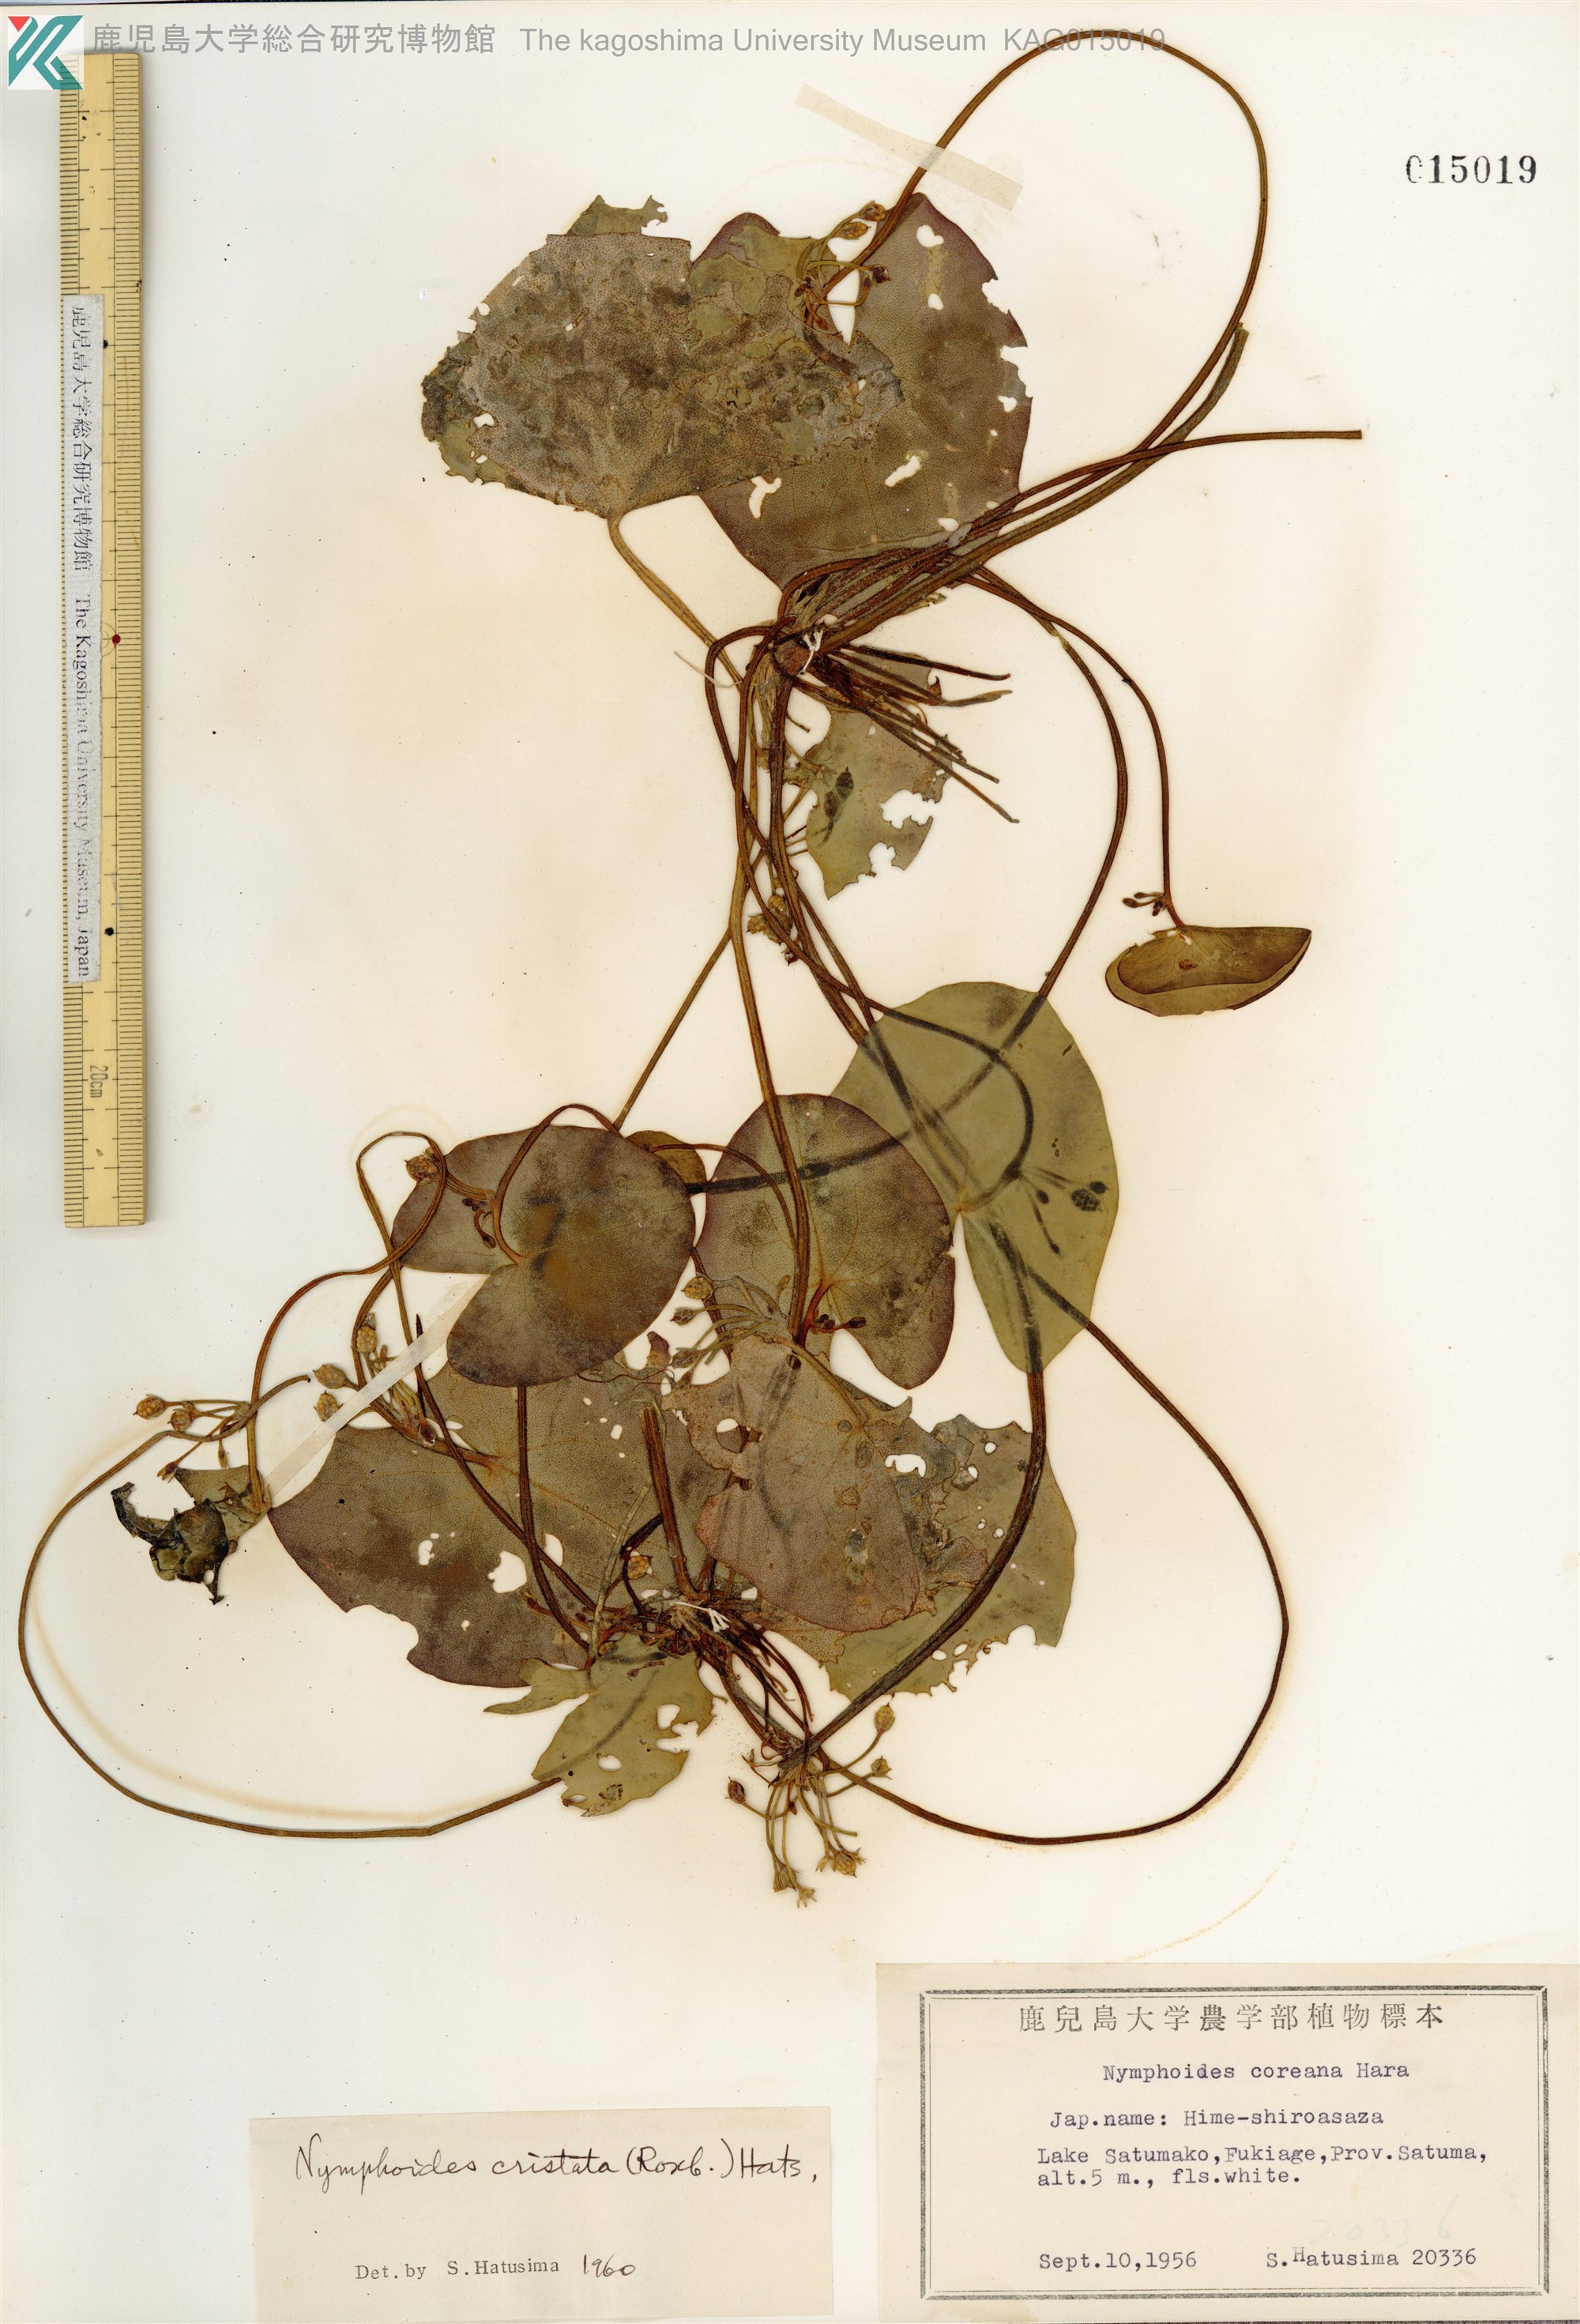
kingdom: Plantae
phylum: Tracheophyta
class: Magnoliopsida
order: Asterales
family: Menyanthaceae
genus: Nymphoides
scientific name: Nymphoides coreana
